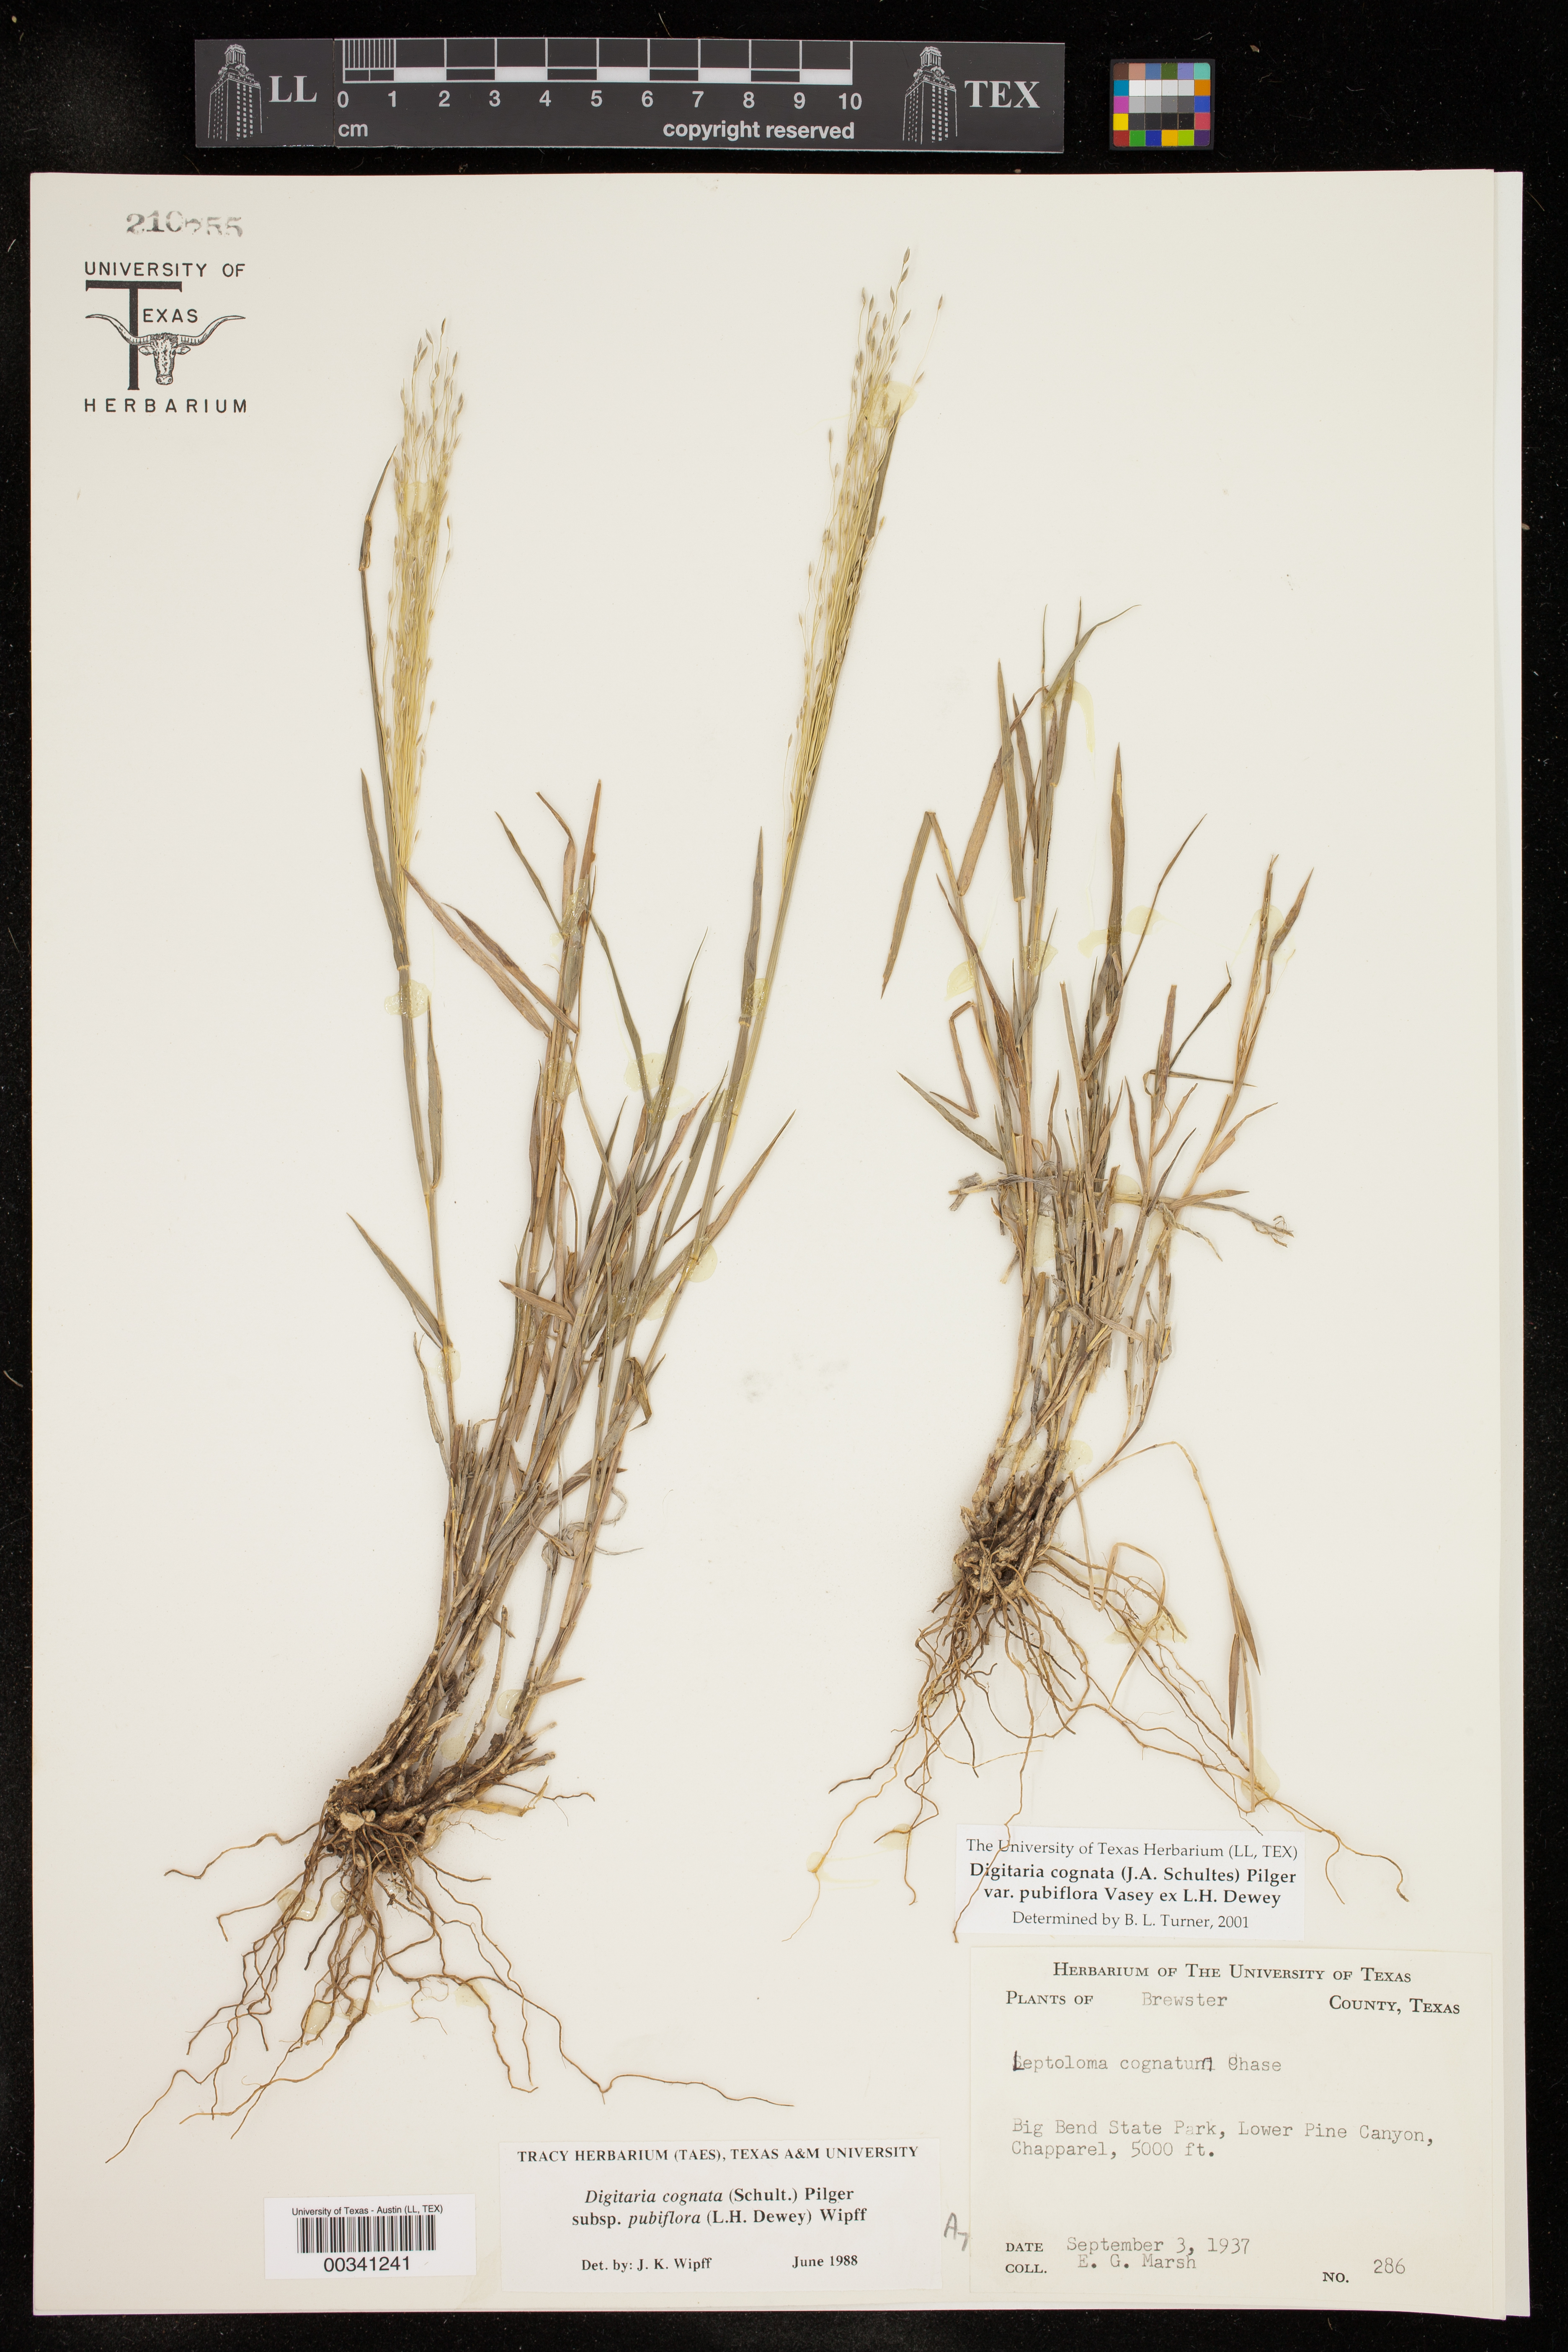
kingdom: Plantae
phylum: Tracheophyta
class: Liliopsida
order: Poales
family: Poaceae
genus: Digitaria
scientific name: Digitaria cognata
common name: Fall witchgrass
